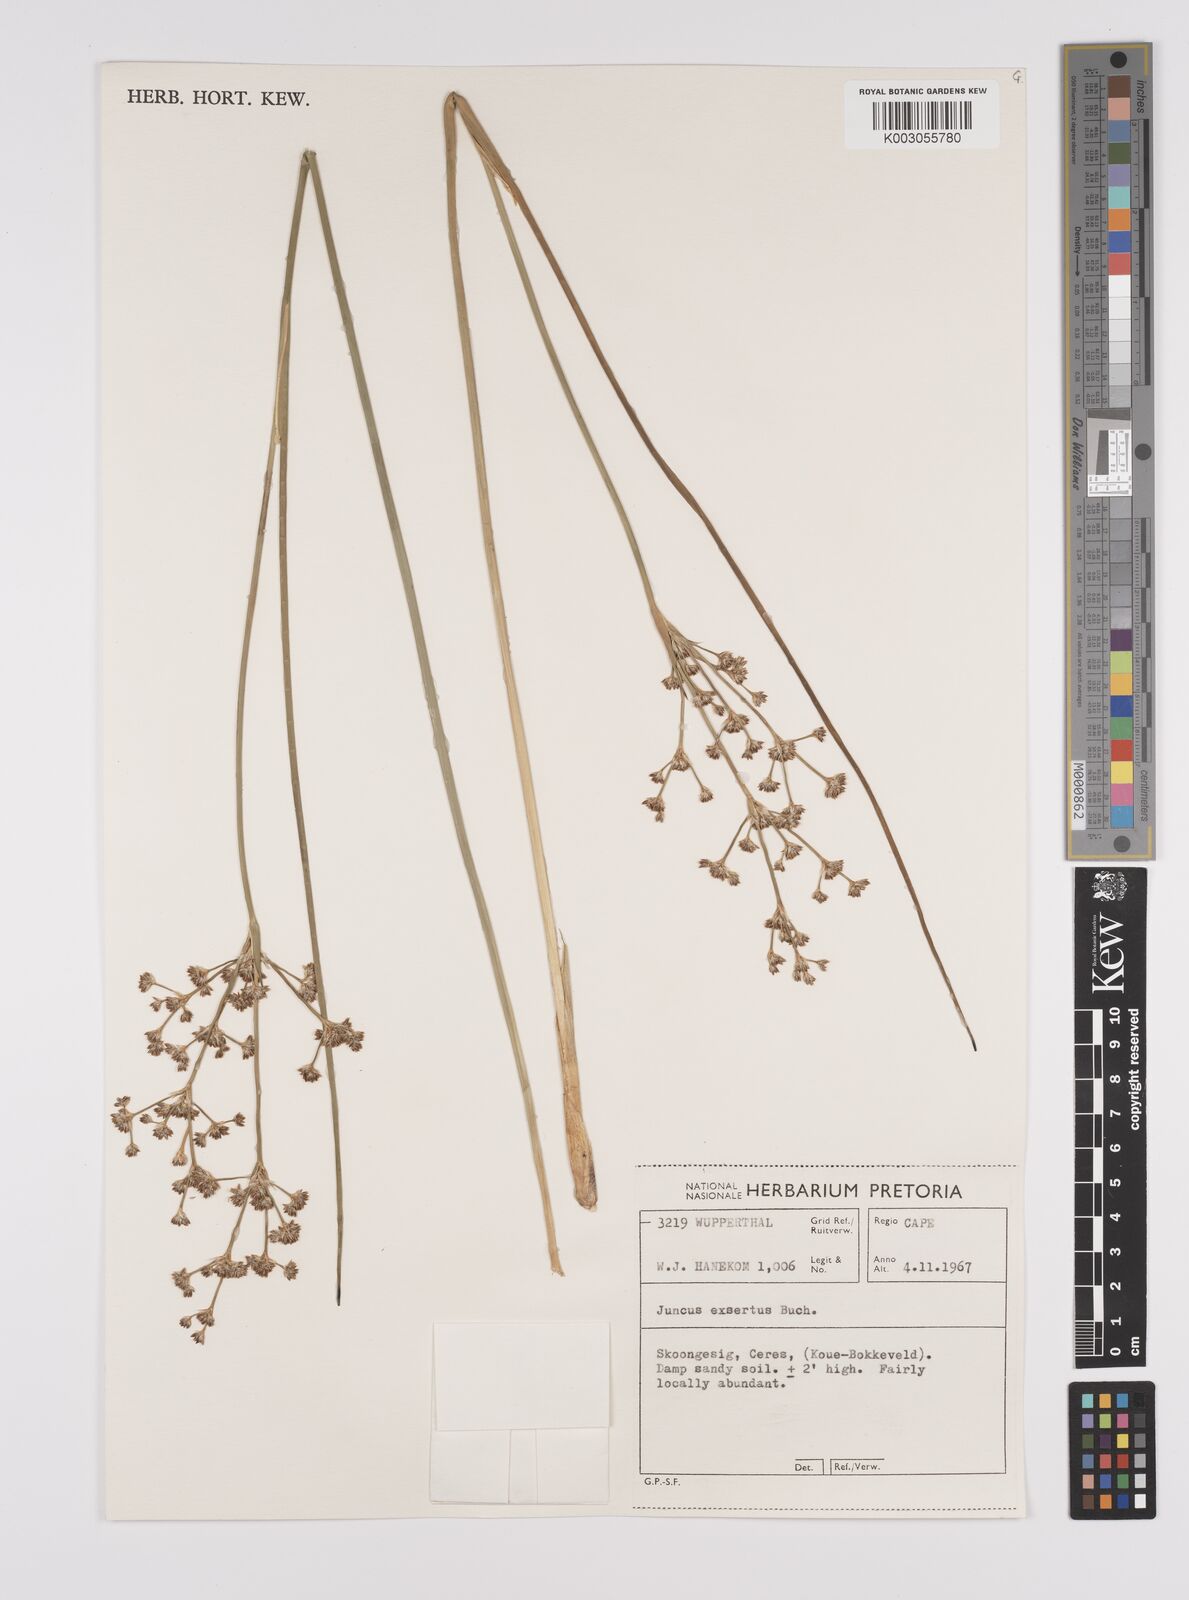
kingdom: Plantae
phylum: Tracheophyta
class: Liliopsida
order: Poales
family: Juncaceae
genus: Juncus
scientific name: Juncus exsertus
